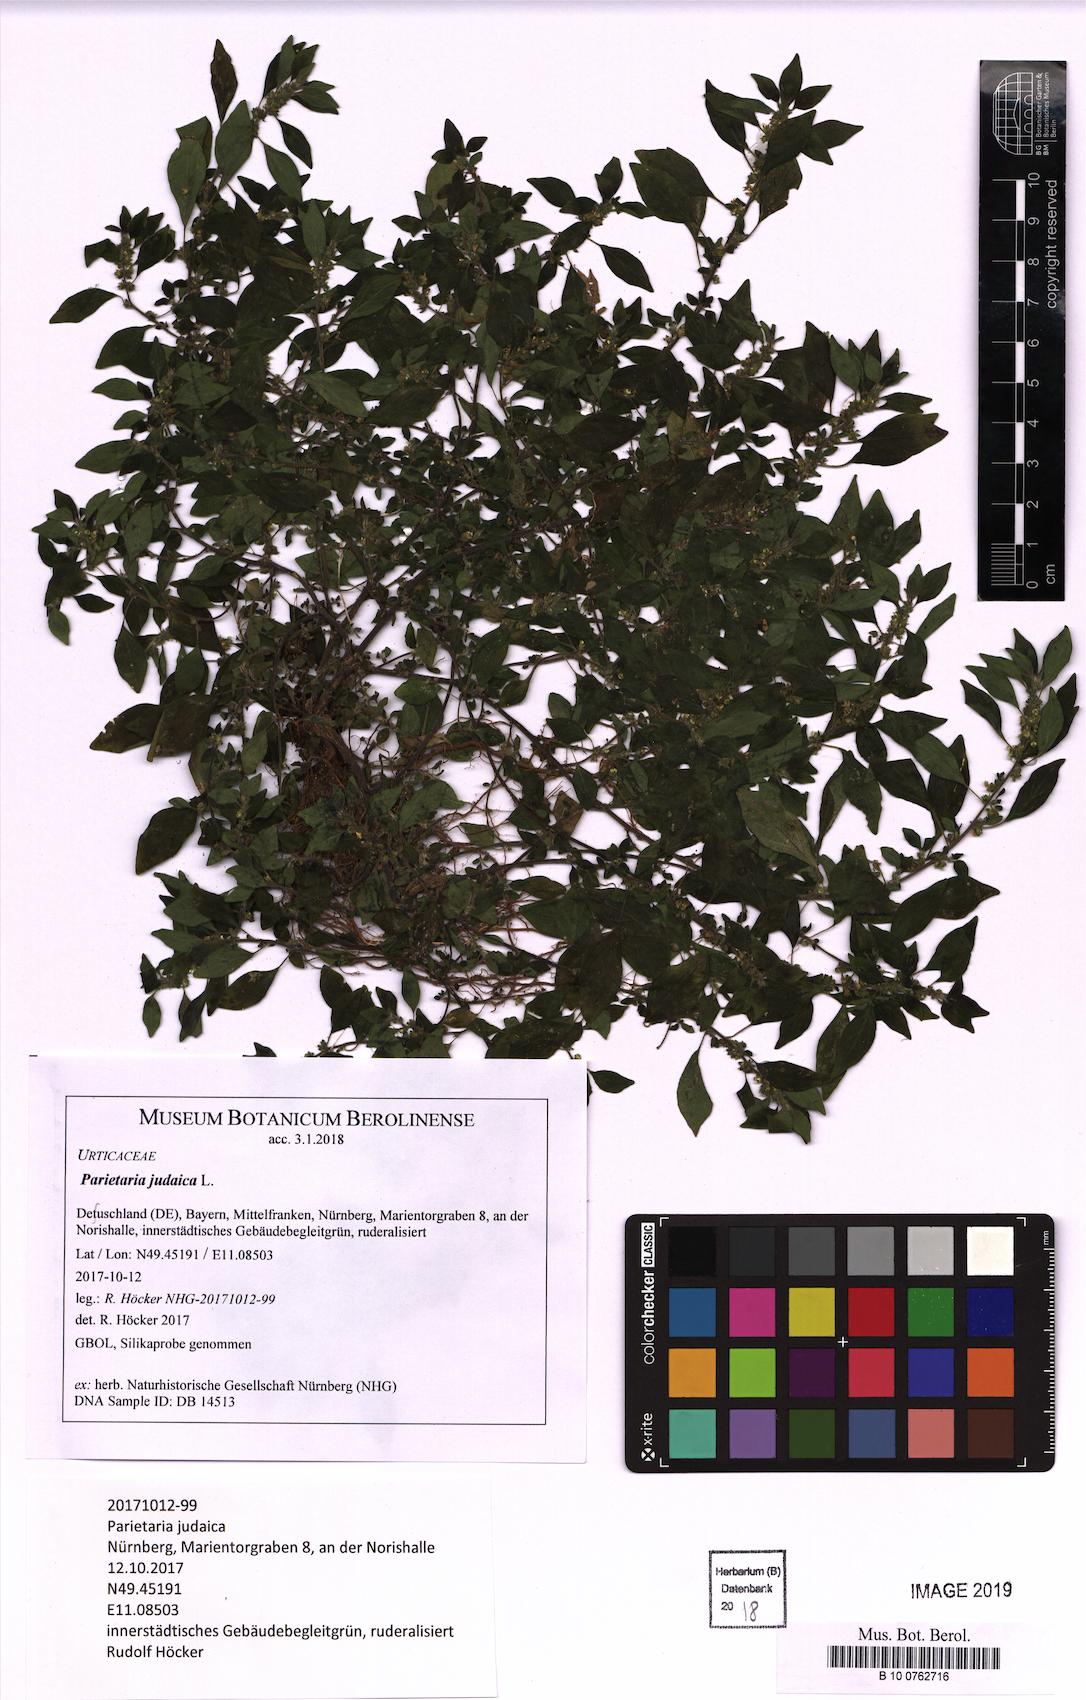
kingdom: Plantae
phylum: Tracheophyta
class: Magnoliopsida
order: Rosales
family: Urticaceae
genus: Parietaria
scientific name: Parietaria judaica
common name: Pellitory-of-the-wall
